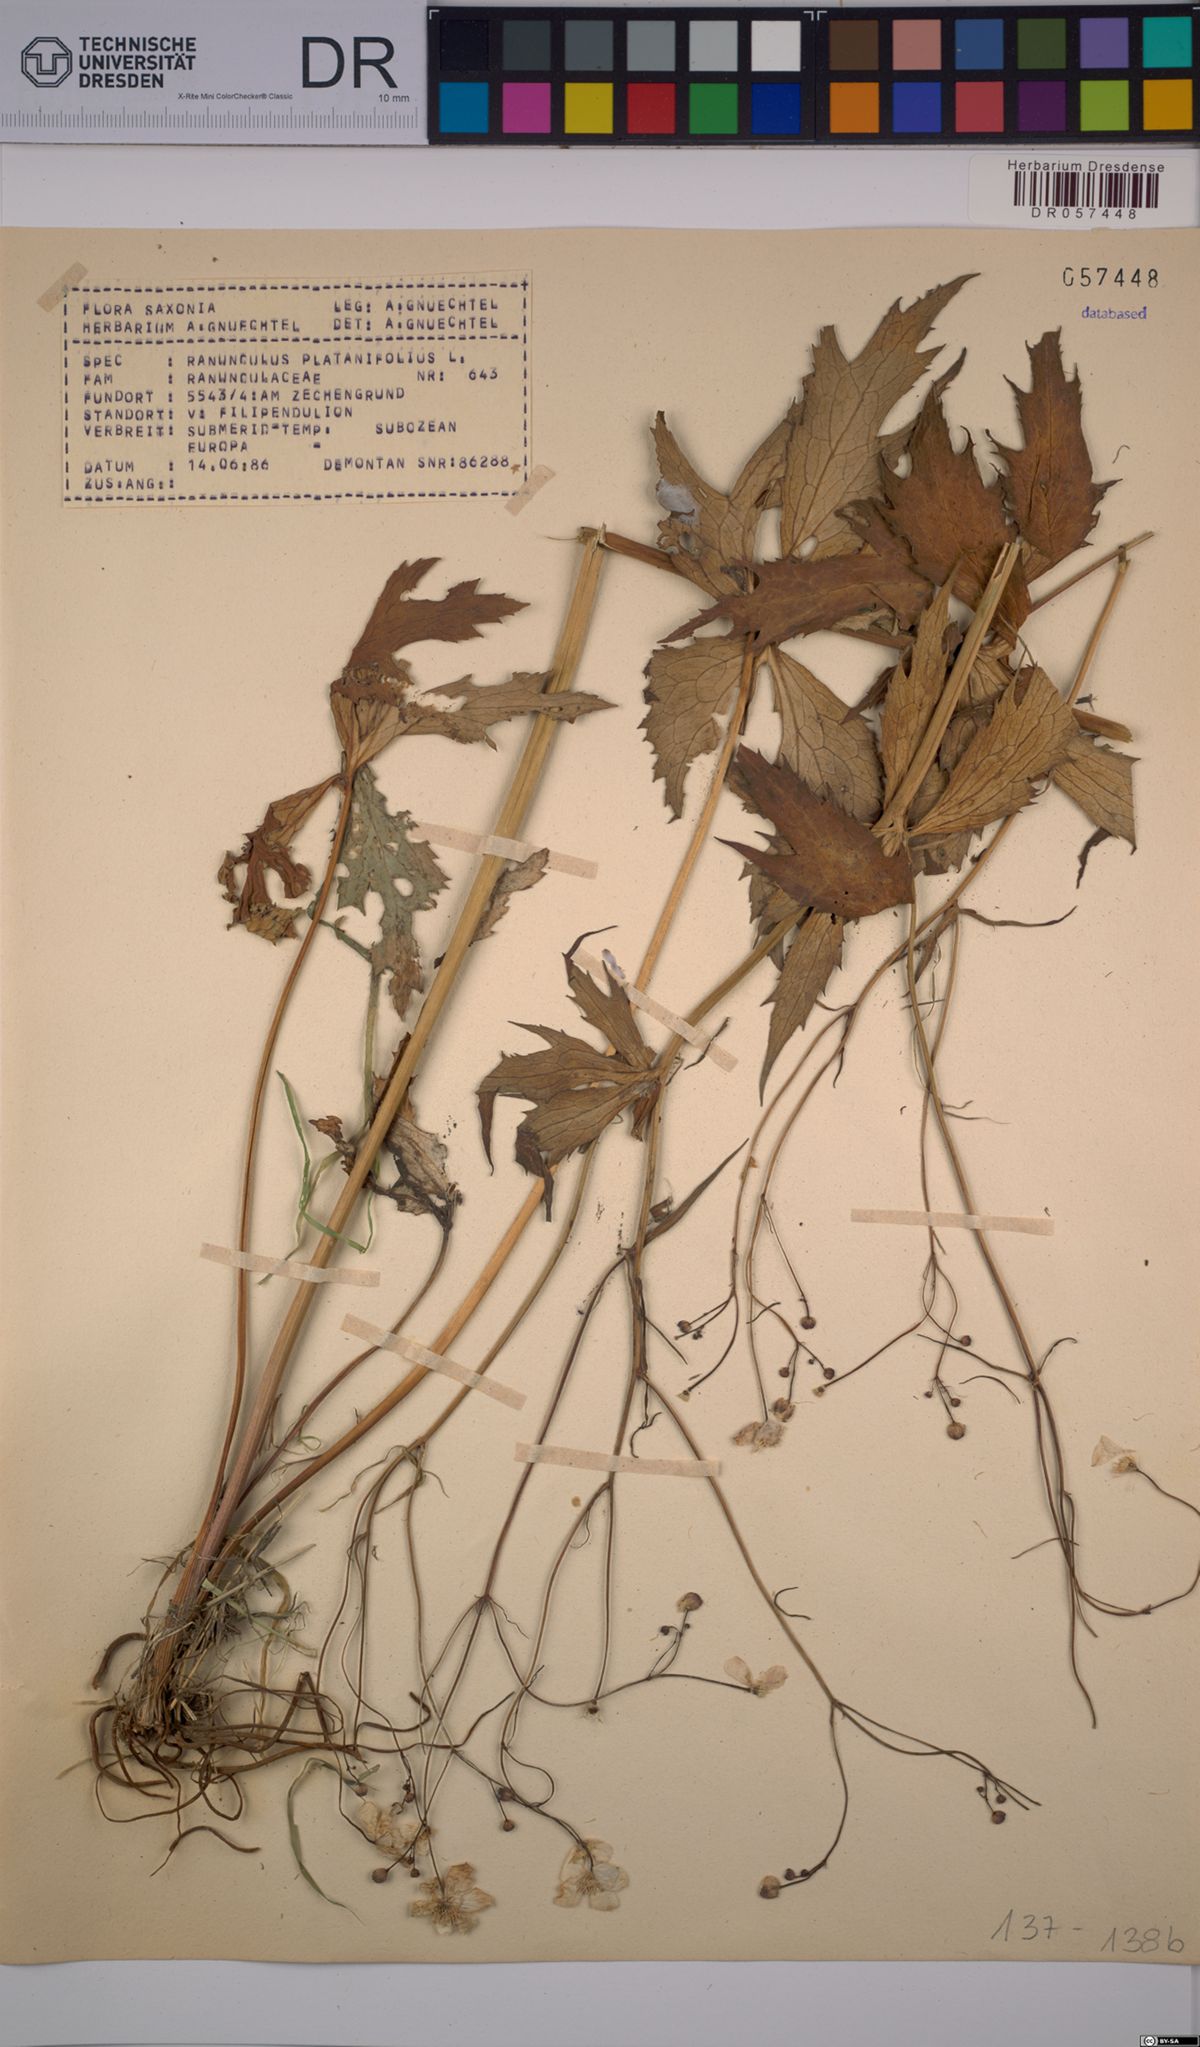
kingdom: Plantae
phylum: Tracheophyta
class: Magnoliopsida
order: Ranunculales
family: Ranunculaceae
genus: Ranunculus
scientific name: Ranunculus platanifolius
